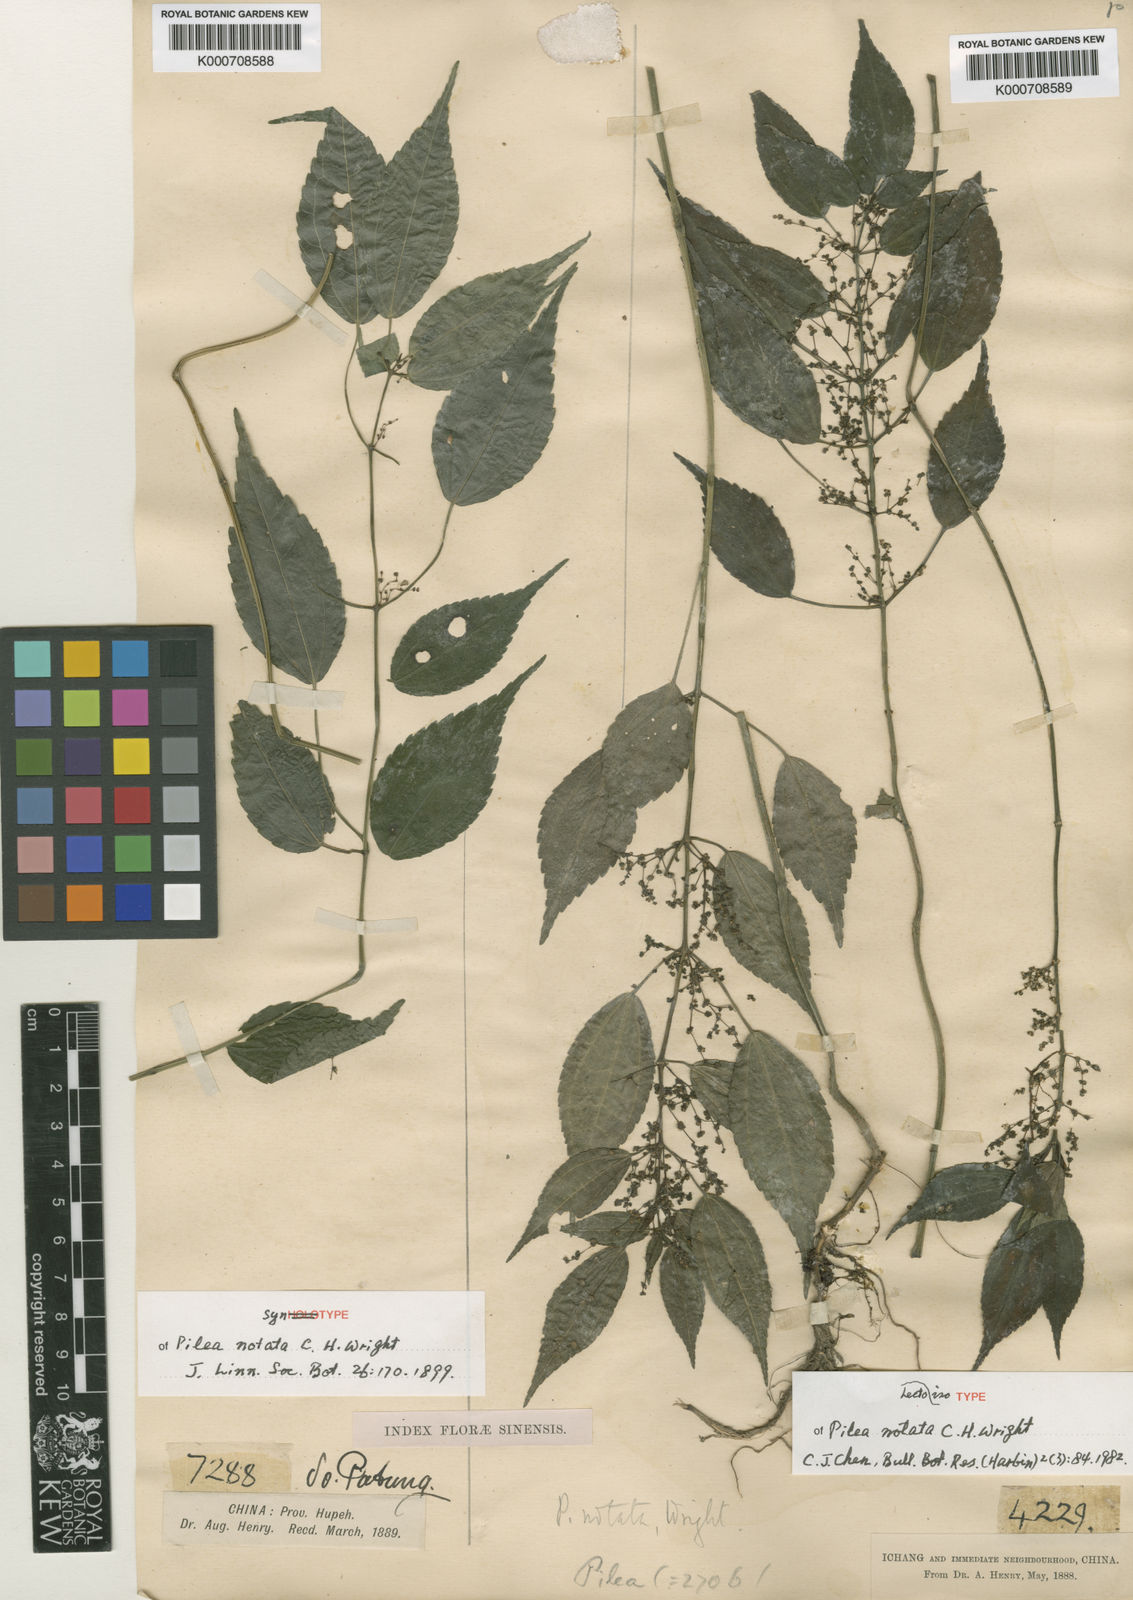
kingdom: Plantae
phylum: Tracheophyta
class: Magnoliopsida
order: Rosales
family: Urticaceae
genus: Pilea
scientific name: Pilea notata
